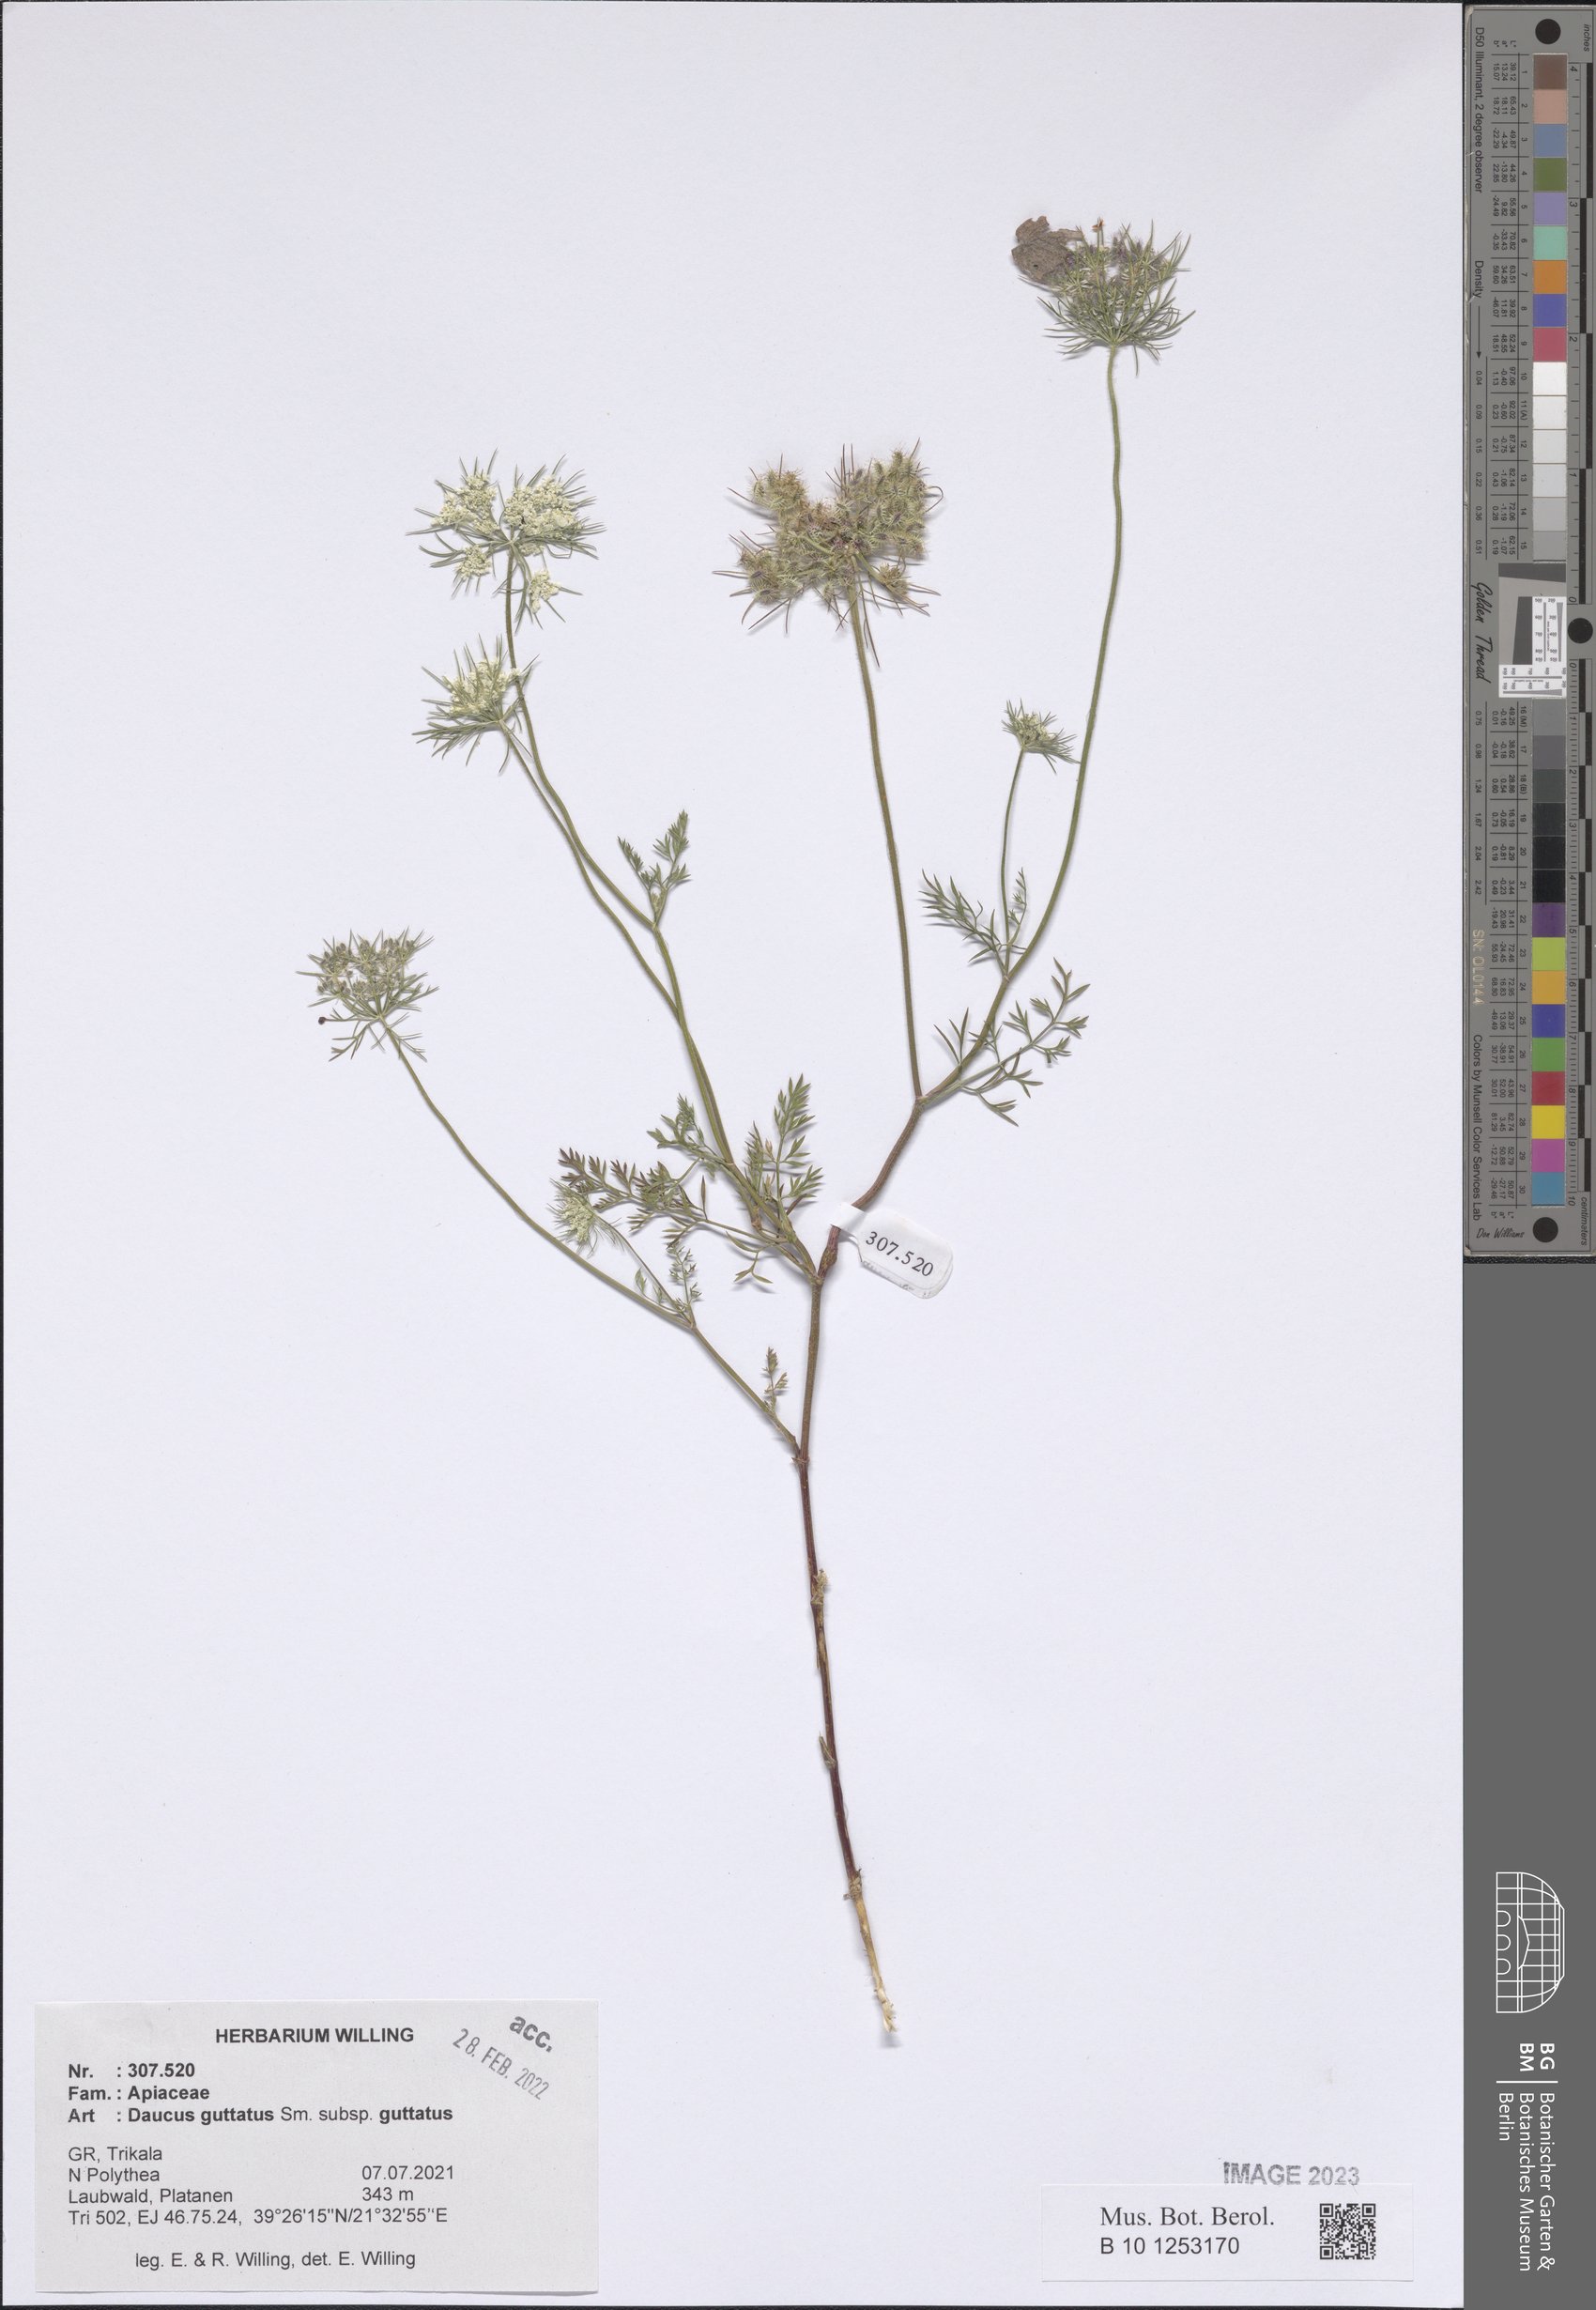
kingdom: Plantae
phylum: Tracheophyta
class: Magnoliopsida
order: Apiales
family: Apiaceae
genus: Daucus
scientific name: Daucus guttatus
